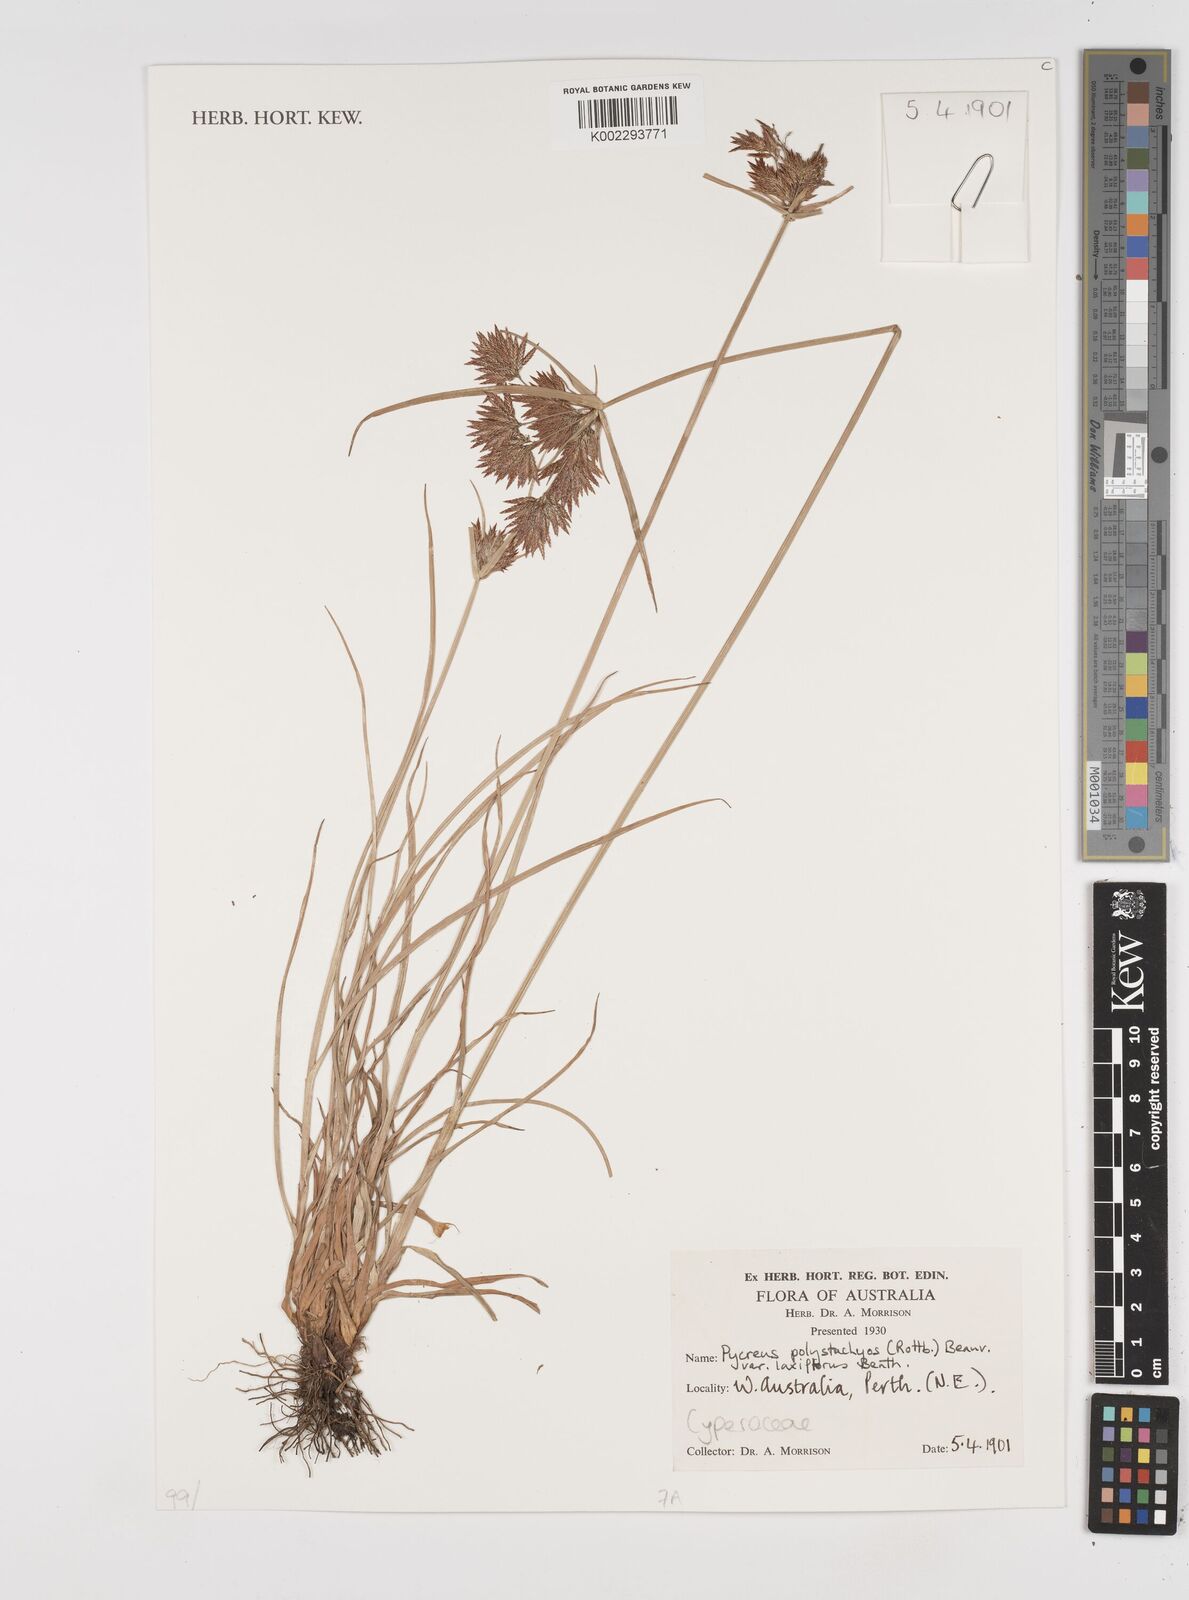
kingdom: Plantae
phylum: Tracheophyta
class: Liliopsida
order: Poales
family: Cyperaceae
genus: Cyperus
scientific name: Cyperus polystachyos
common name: Bunchy flat sedge
